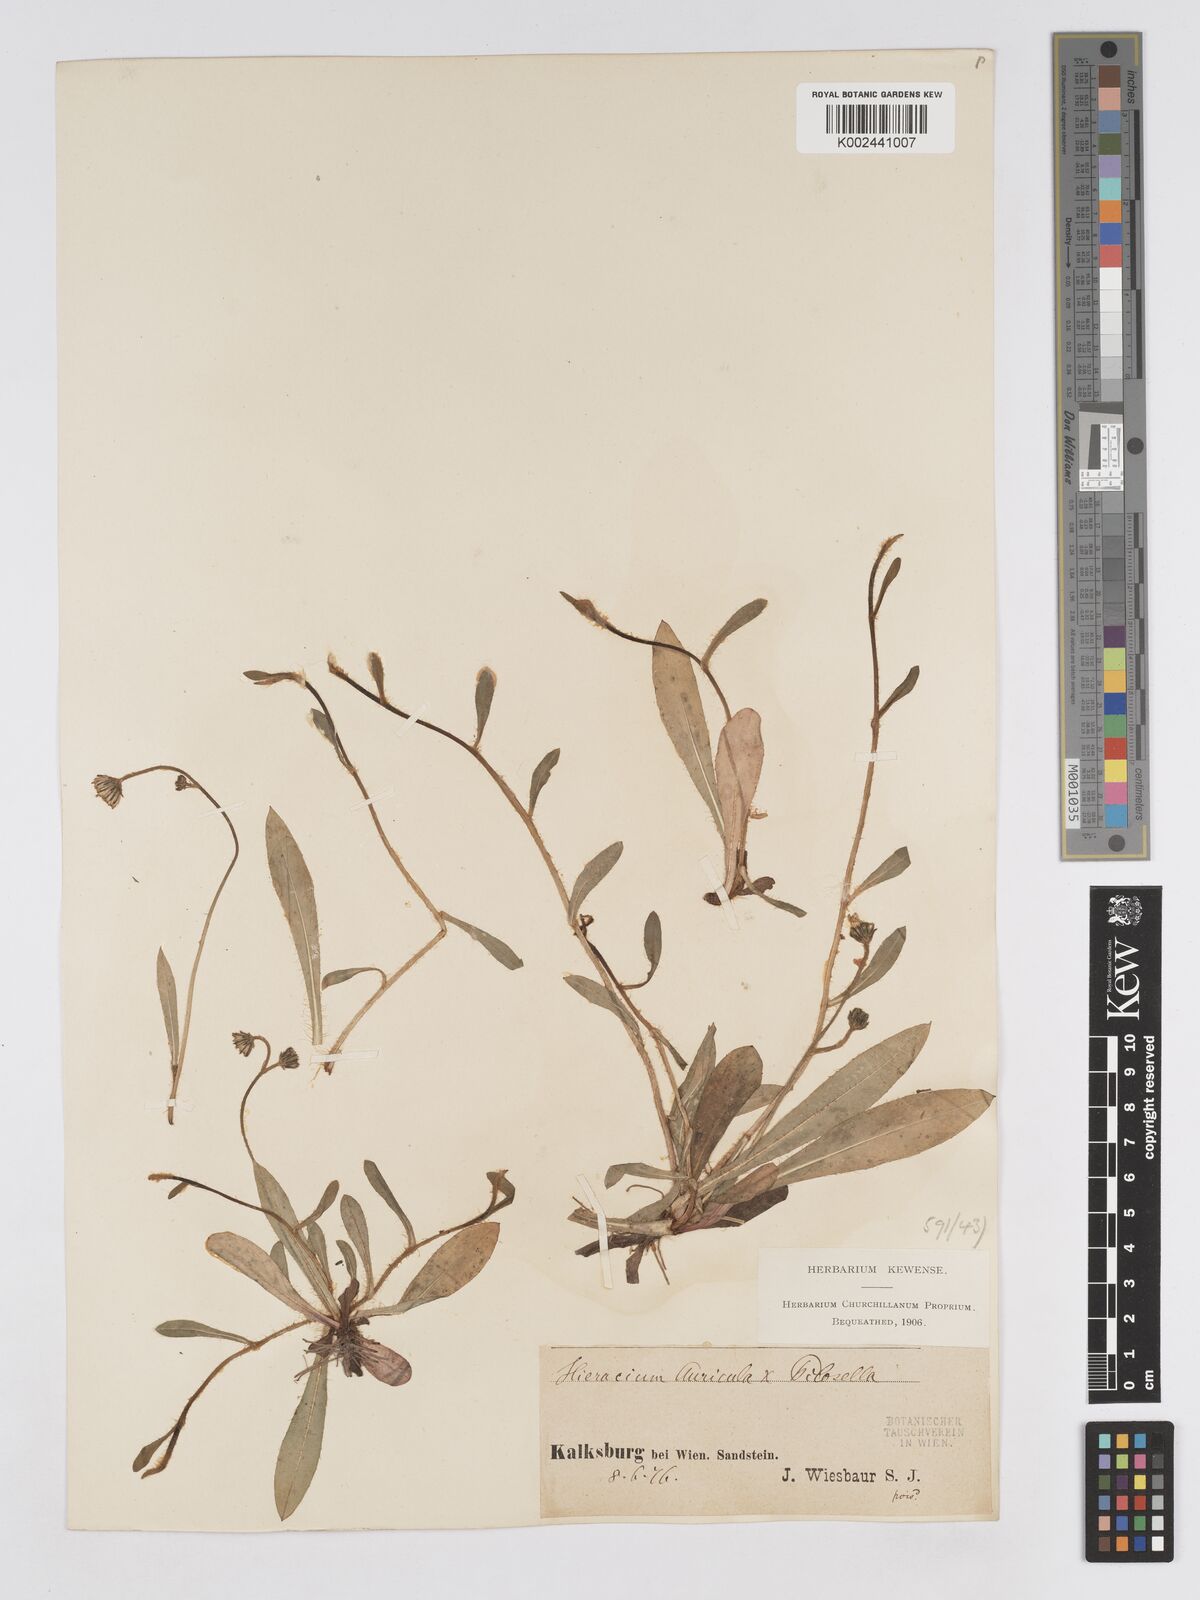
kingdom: Plantae
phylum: Tracheophyta
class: Magnoliopsida
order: Asterales
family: Asteraceae
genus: Pilosella
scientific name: Pilosella schultesii
